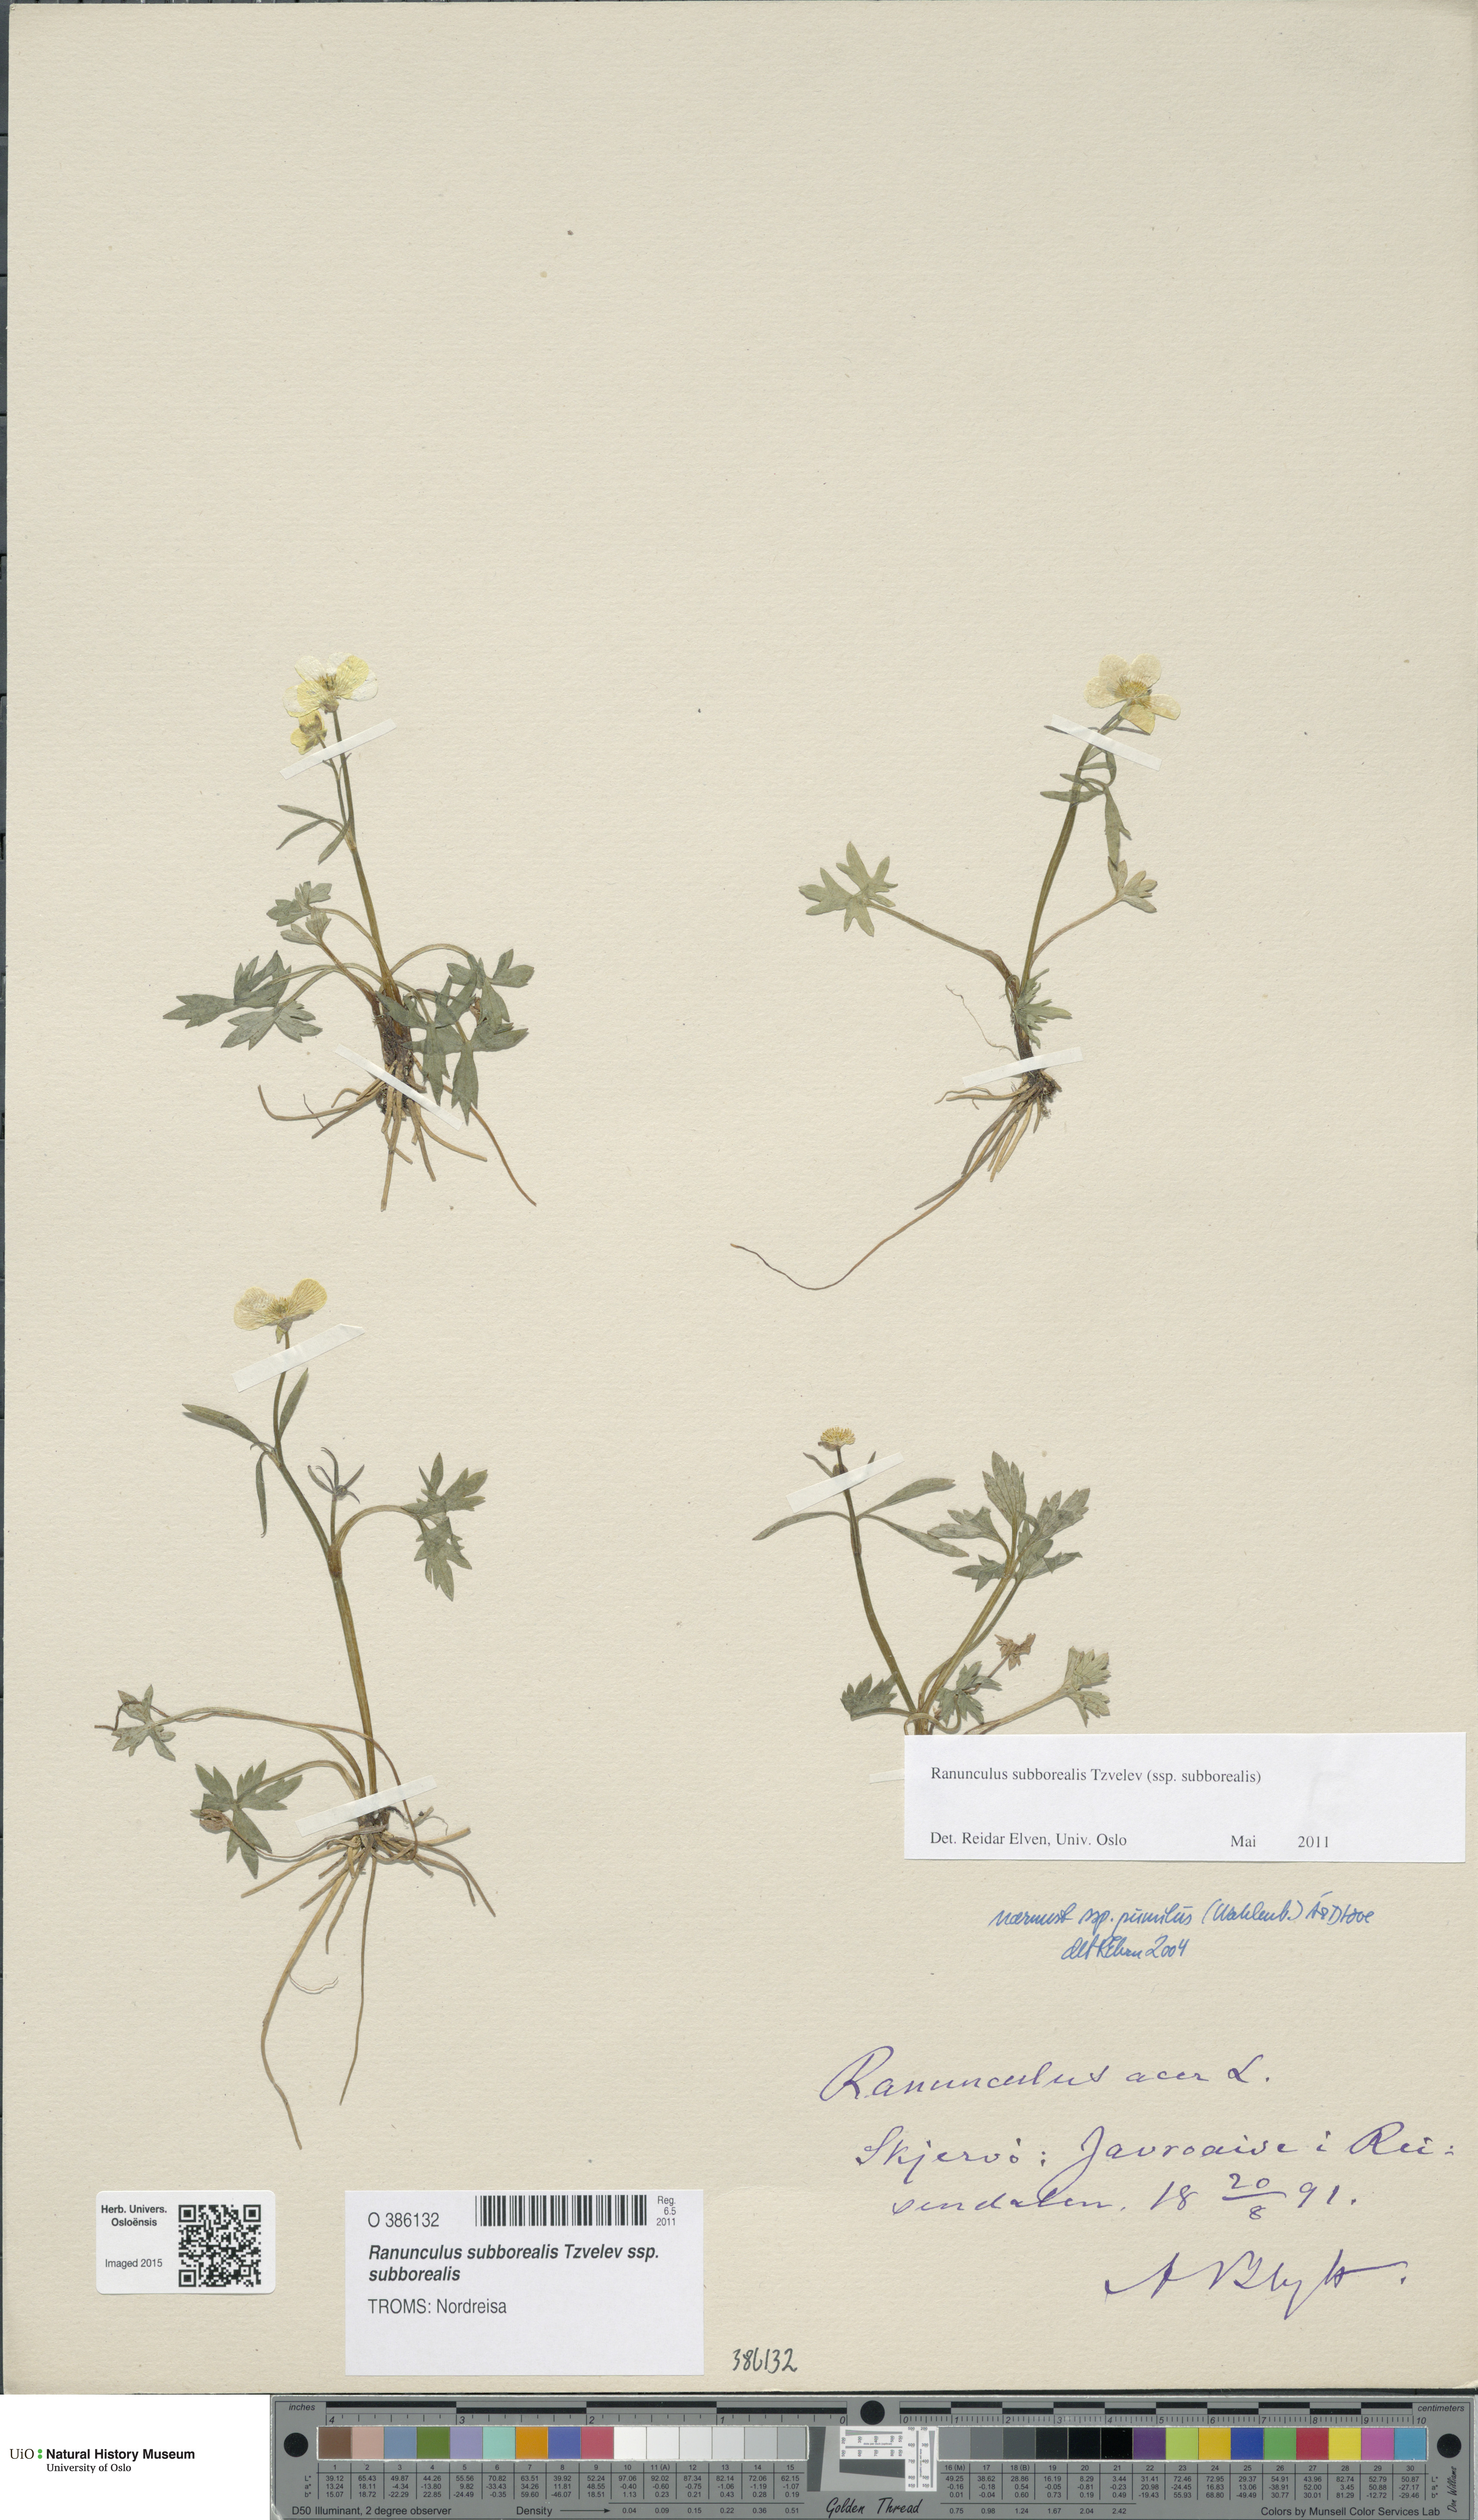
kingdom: Plantae
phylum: Tracheophyta
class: Magnoliopsida
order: Ranunculales
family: Ranunculaceae
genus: Ranunculus
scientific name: Ranunculus propinquus
